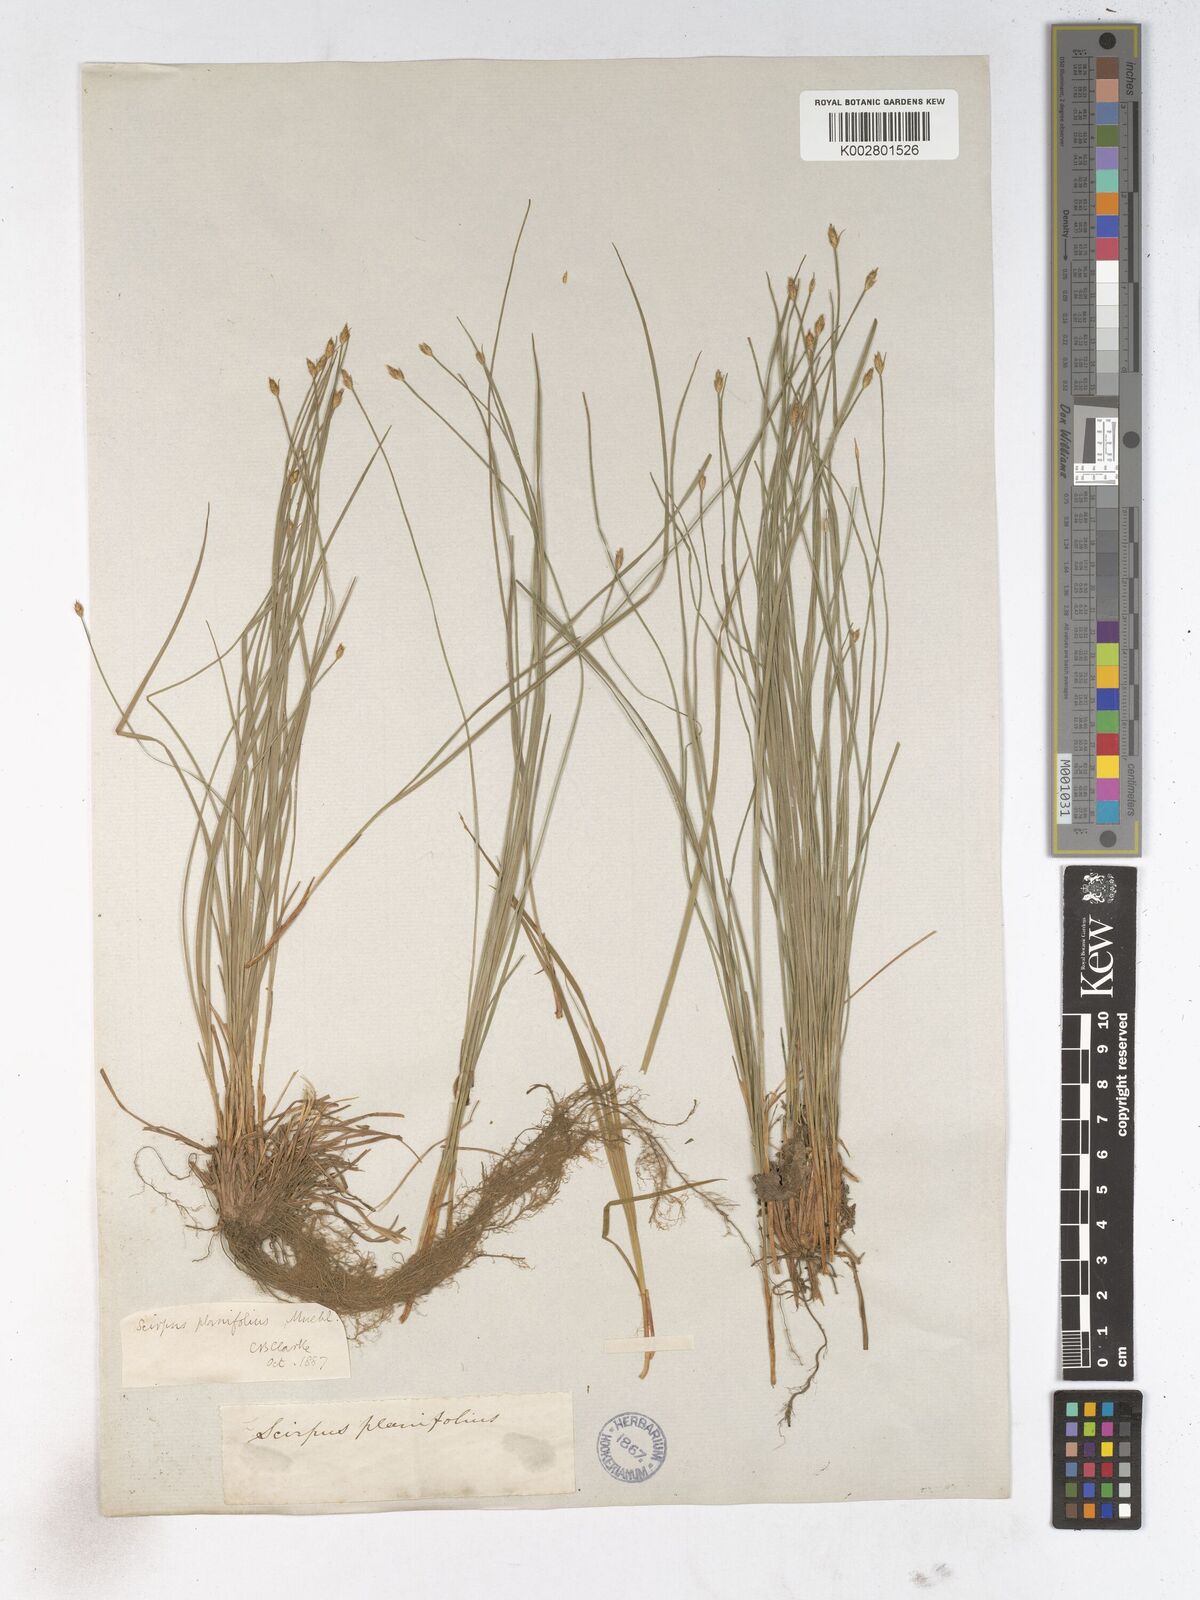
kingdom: Plantae
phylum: Tracheophyta
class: Liliopsida
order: Poales
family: Cyperaceae
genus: Trichophorum
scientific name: Trichophorum planifolium
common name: Bashful bulrush
